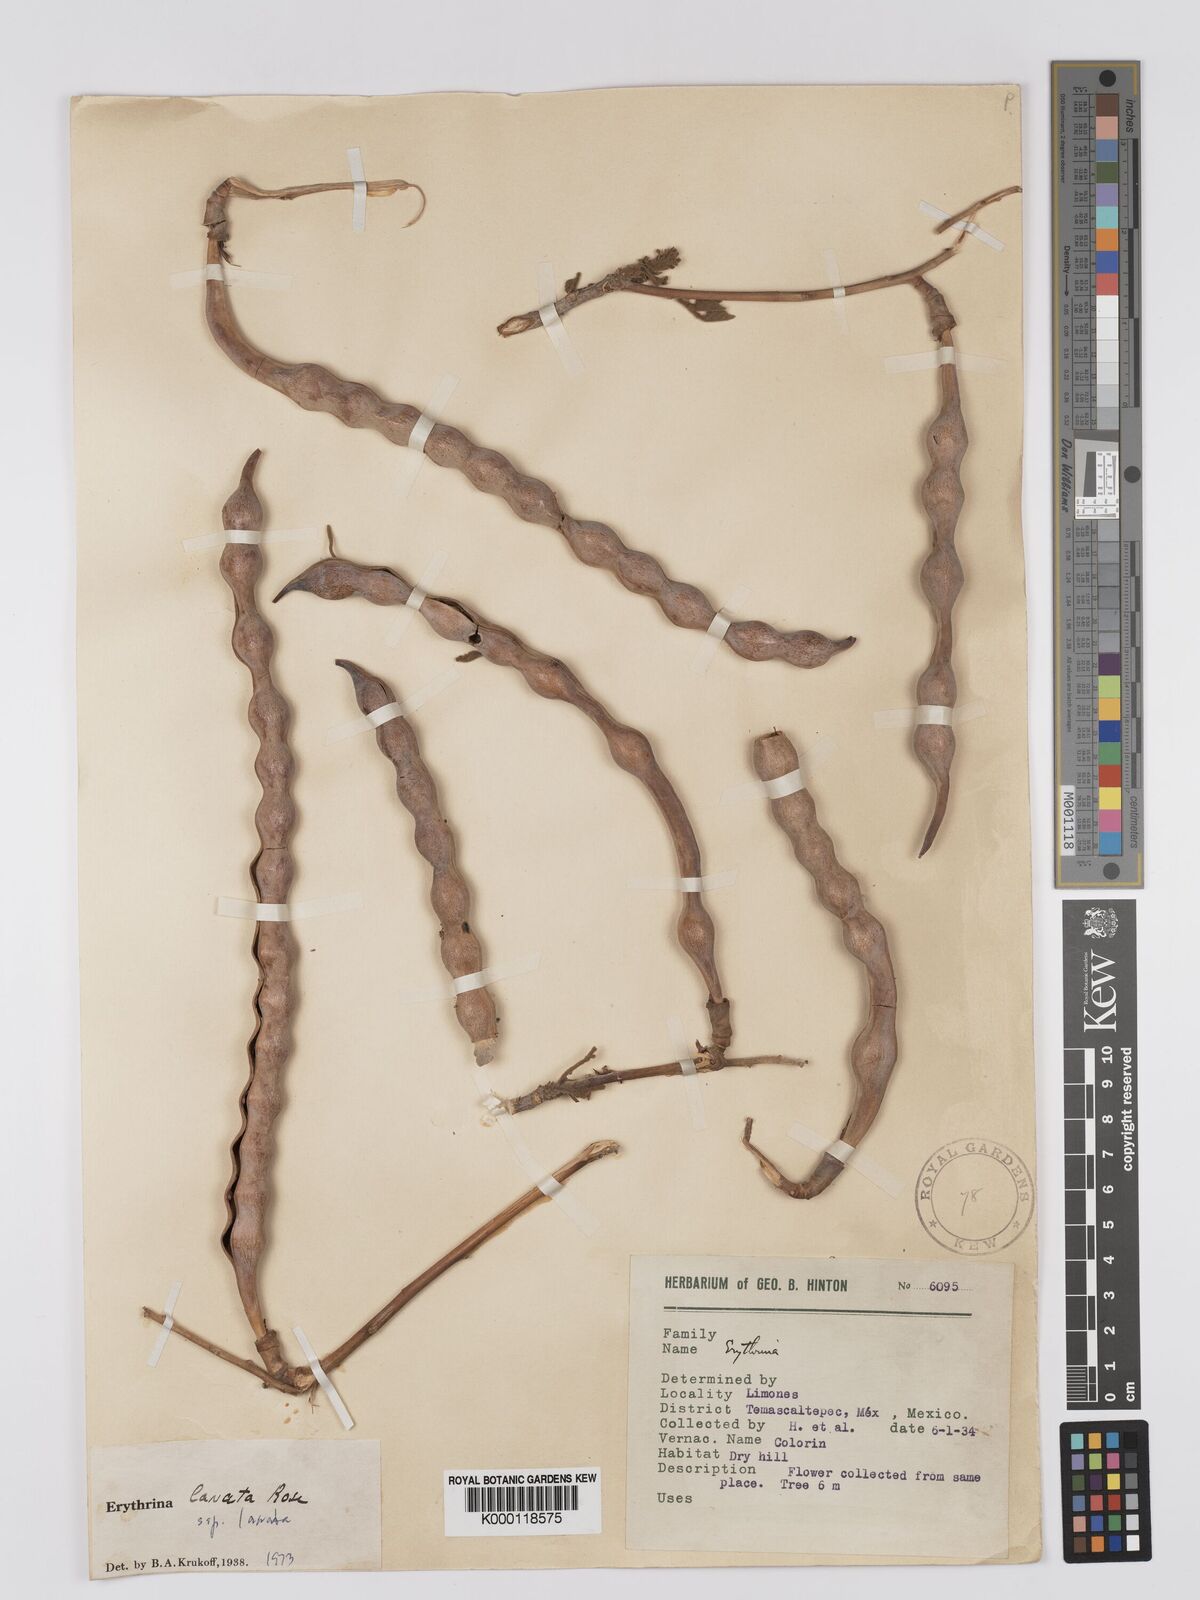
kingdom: Plantae
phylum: Tracheophyta
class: Magnoliopsida
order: Fabales
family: Fabaceae
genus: Erythrina
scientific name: Erythrina lanata
